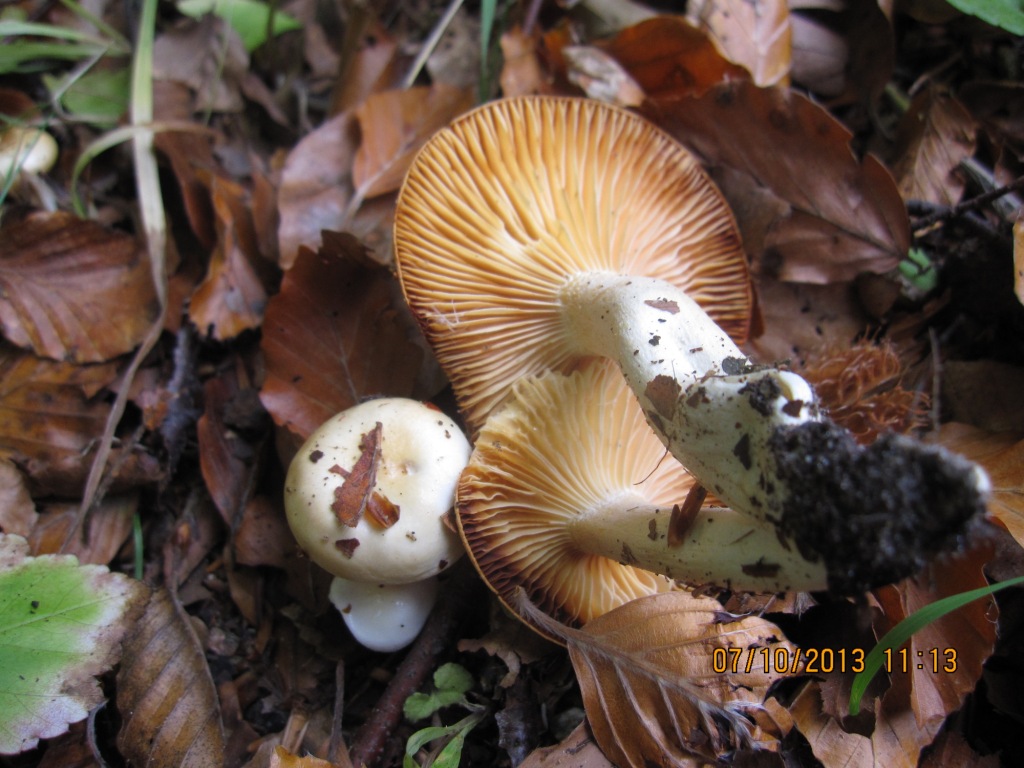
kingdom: Fungi
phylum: Basidiomycota
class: Agaricomycetes
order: Agaricales
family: Hygrophoraceae
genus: Hygrophorus
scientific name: Hygrophorus discoxanthus
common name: ildelugtende sneglehat
